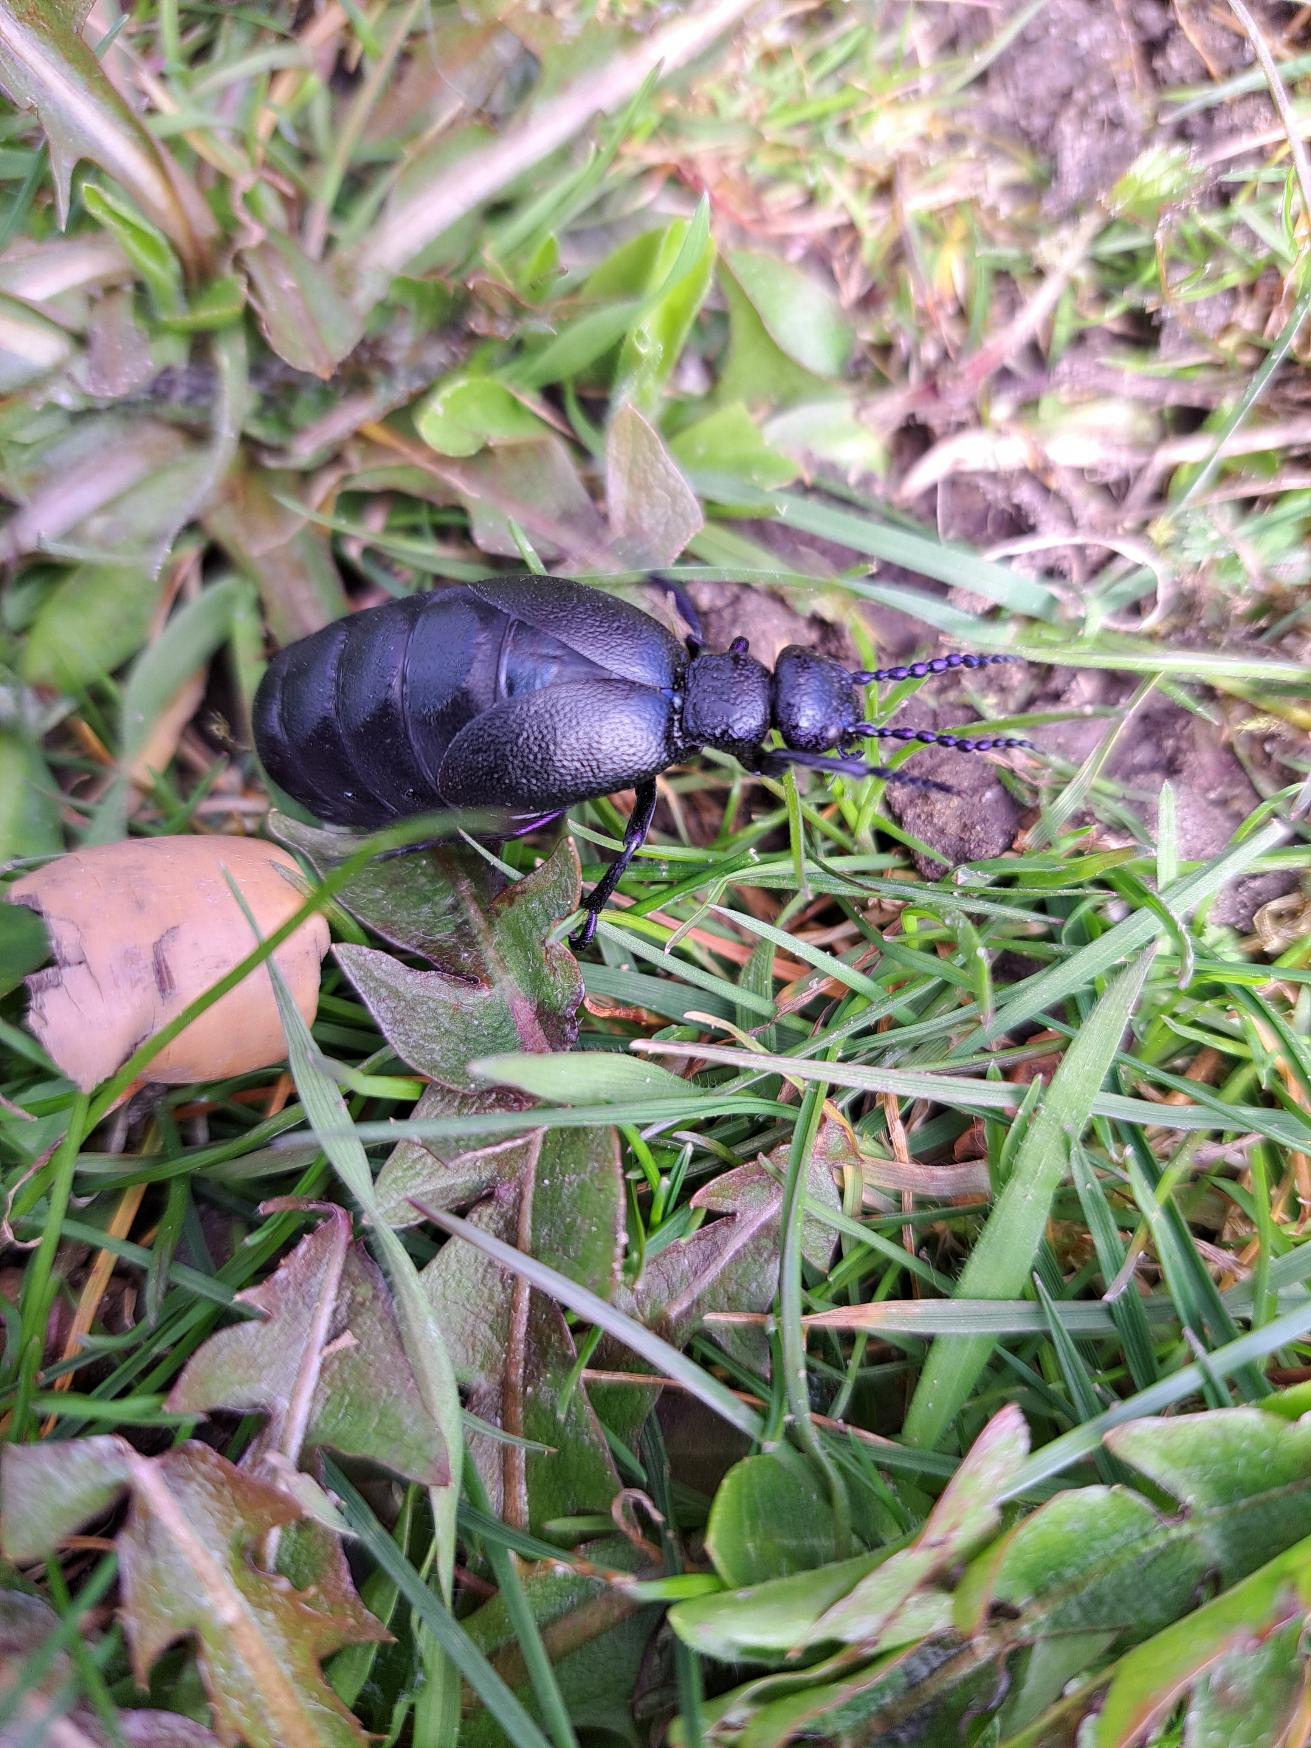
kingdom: Animalia
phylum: Arthropoda
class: Insecta
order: Coleoptera
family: Meloidae
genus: Meloe
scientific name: Meloe violaceus
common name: Blå oliebille
